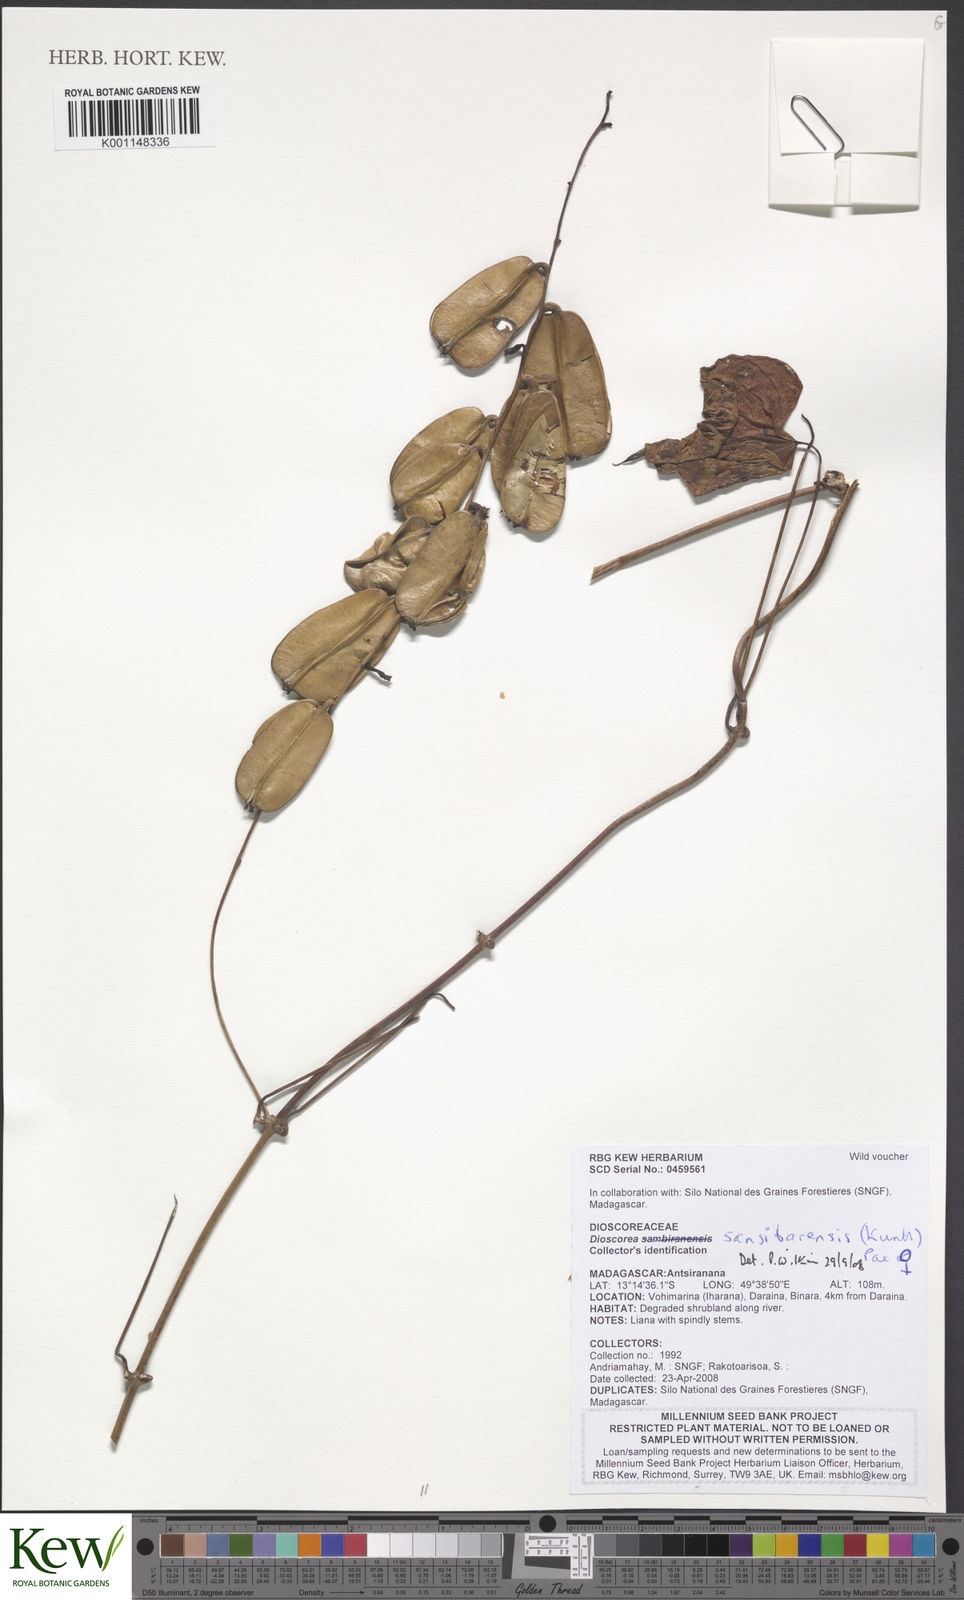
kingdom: Plantae
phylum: Tracheophyta
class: Liliopsida
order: Dioscoreales
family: Dioscoreaceae
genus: Dioscorea
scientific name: Dioscorea sansibarensis
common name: Zanzibar yam
